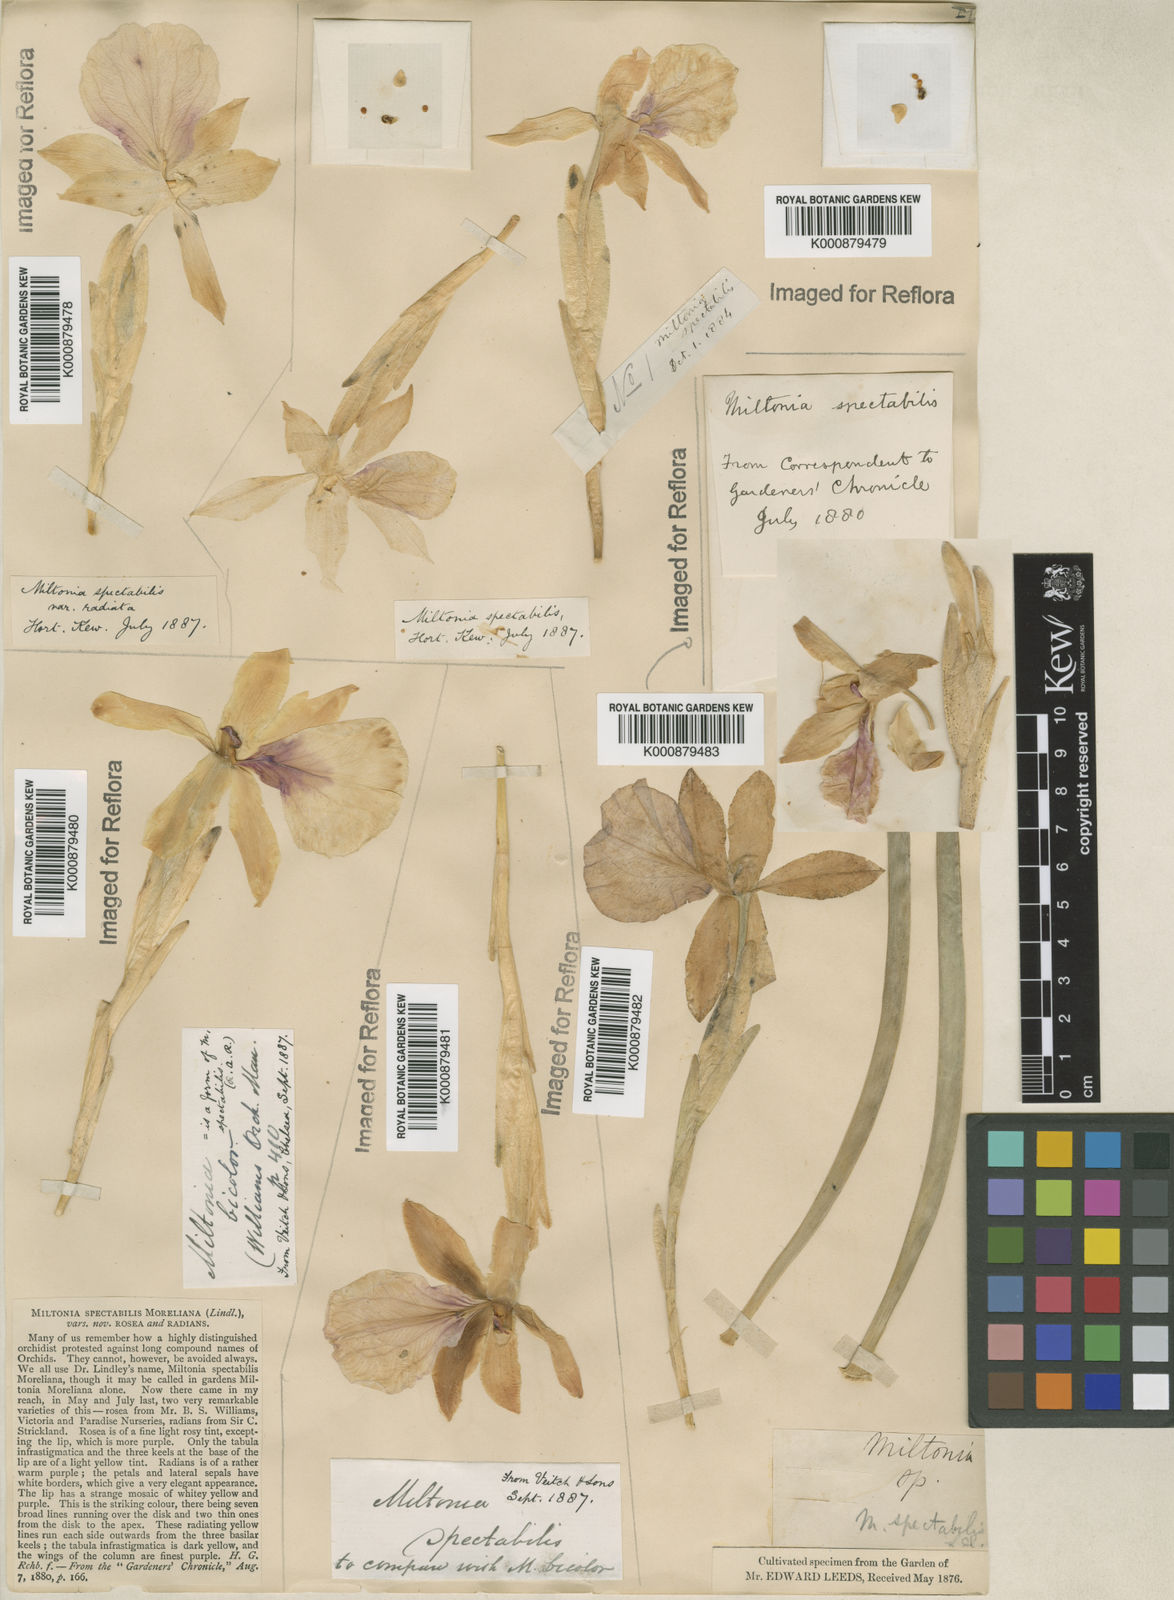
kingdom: Plantae
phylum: Tracheophyta
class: Liliopsida
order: Asparagales
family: Orchidaceae
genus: Miltonia
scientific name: Miltonia spectabilis
